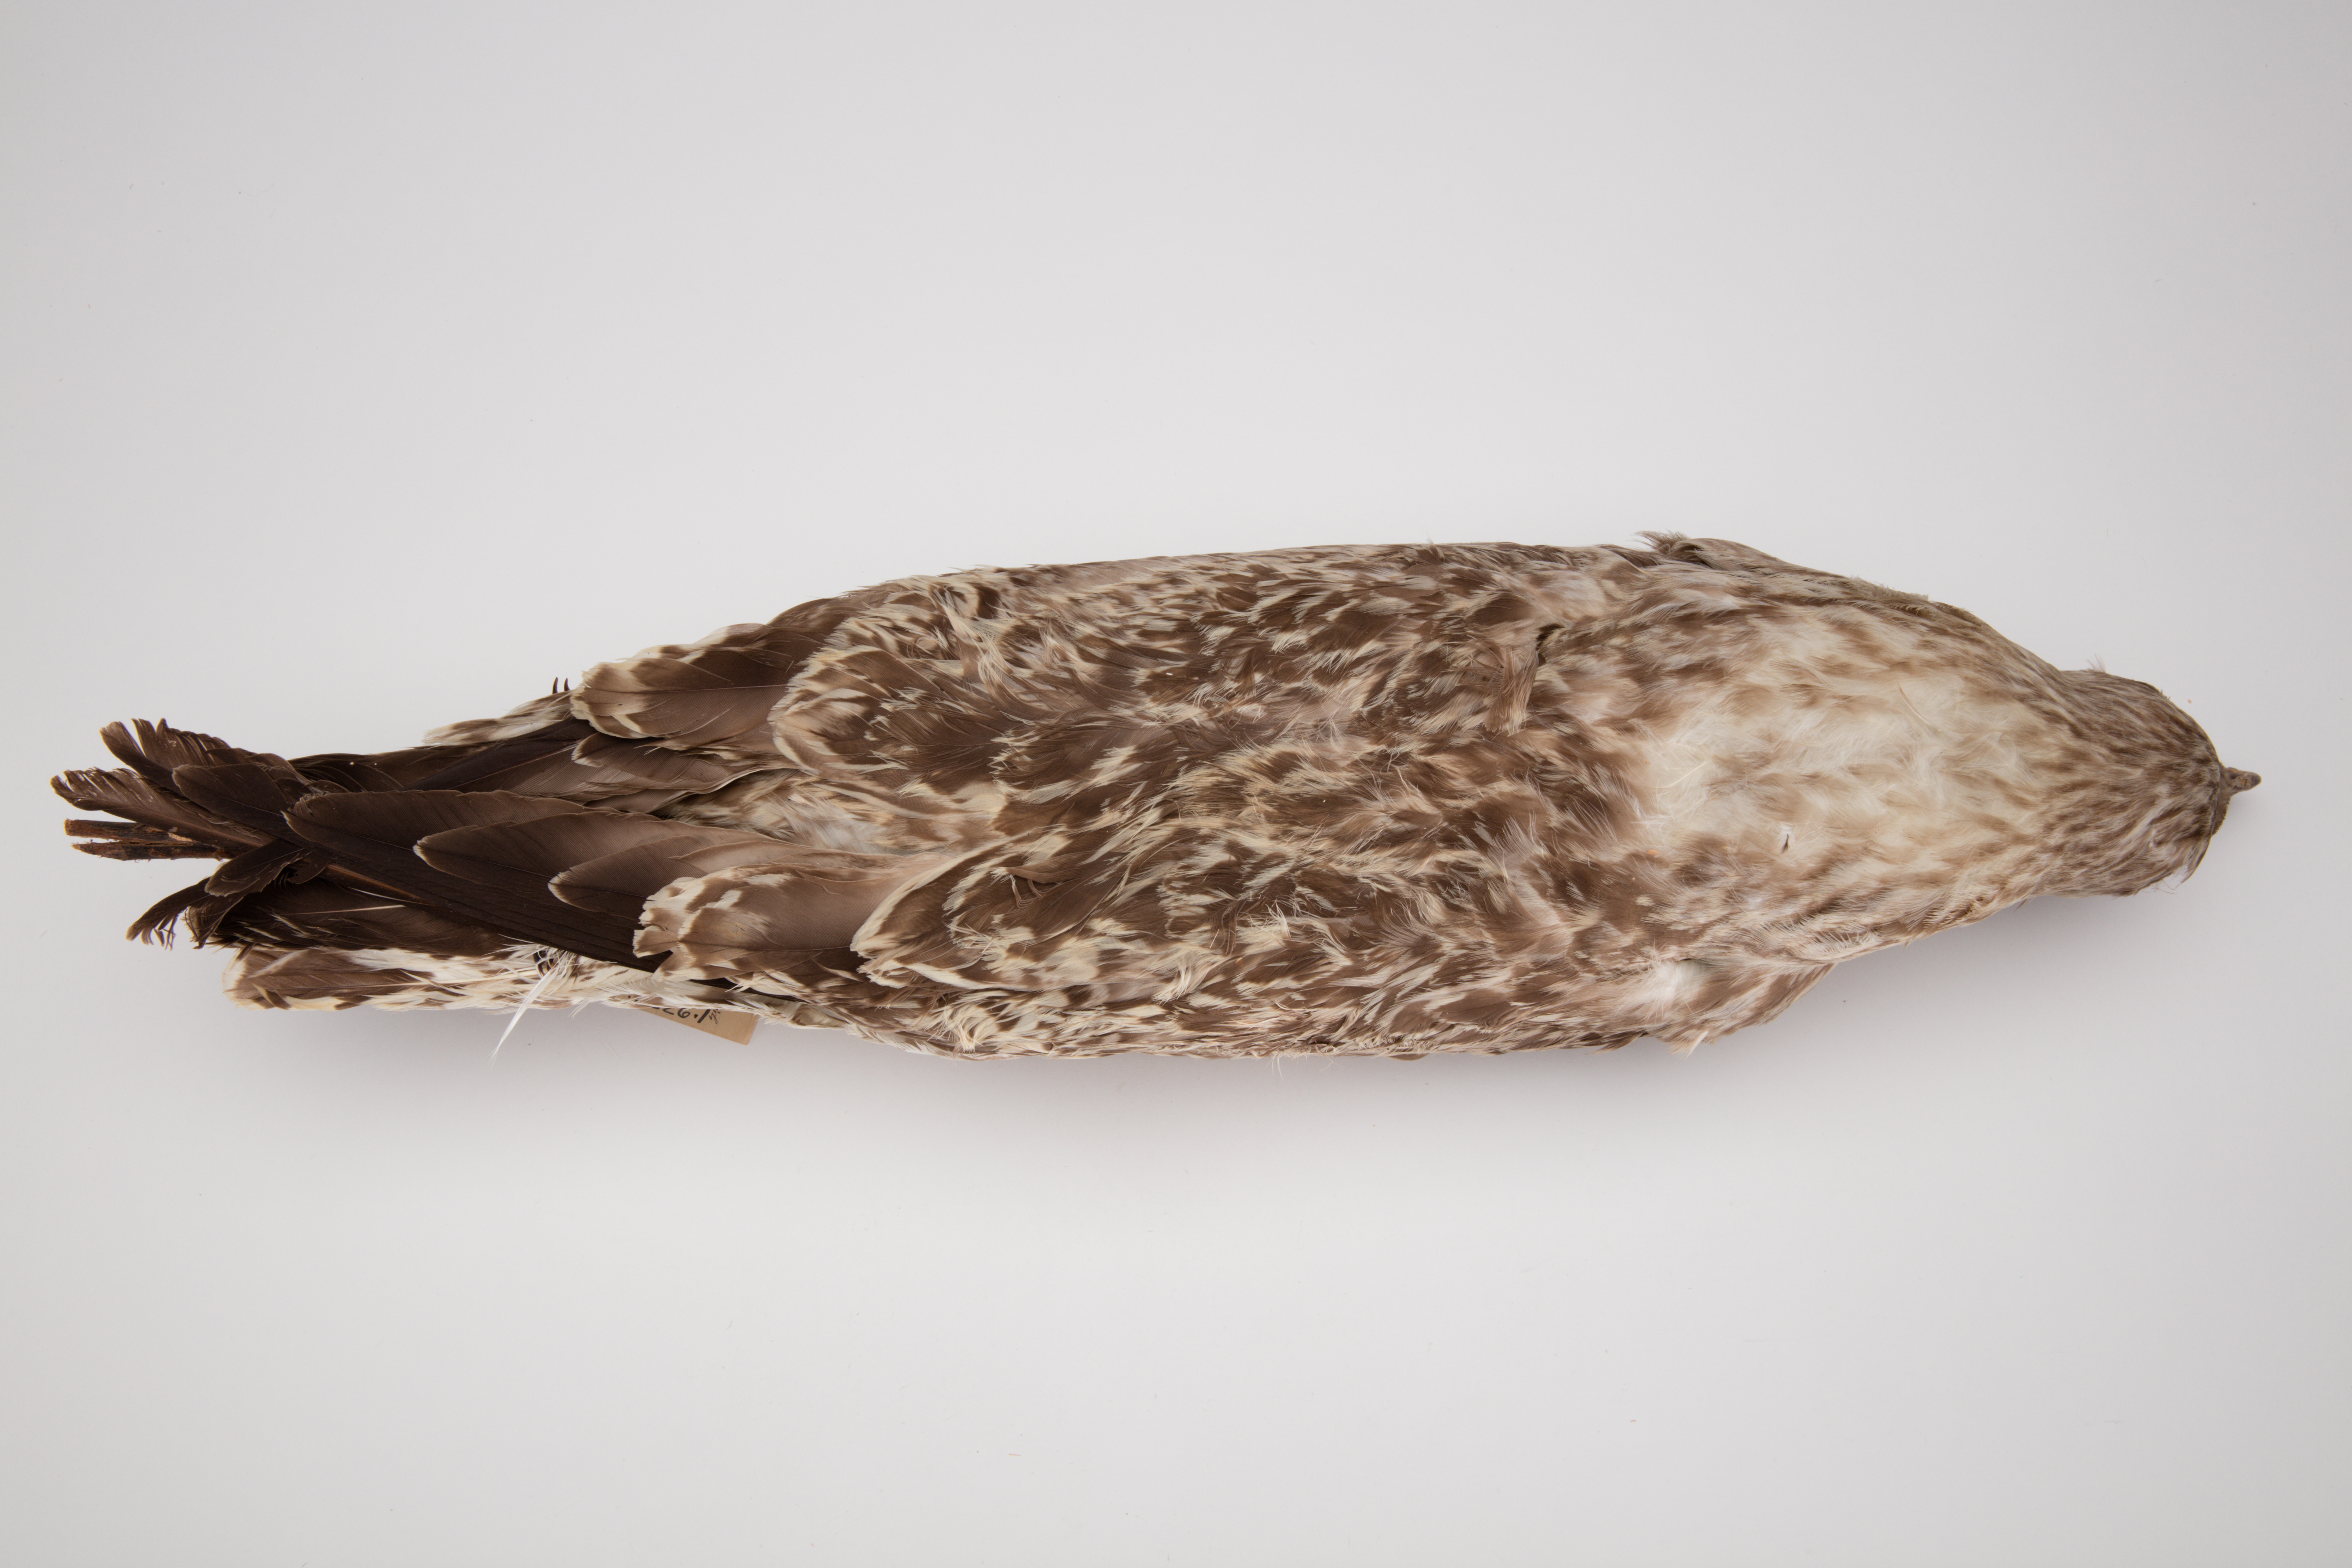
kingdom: Animalia
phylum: Chordata
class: Aves
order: Charadriiformes
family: Laridae
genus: Larus
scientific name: Larus argentatus
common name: Herring gull
